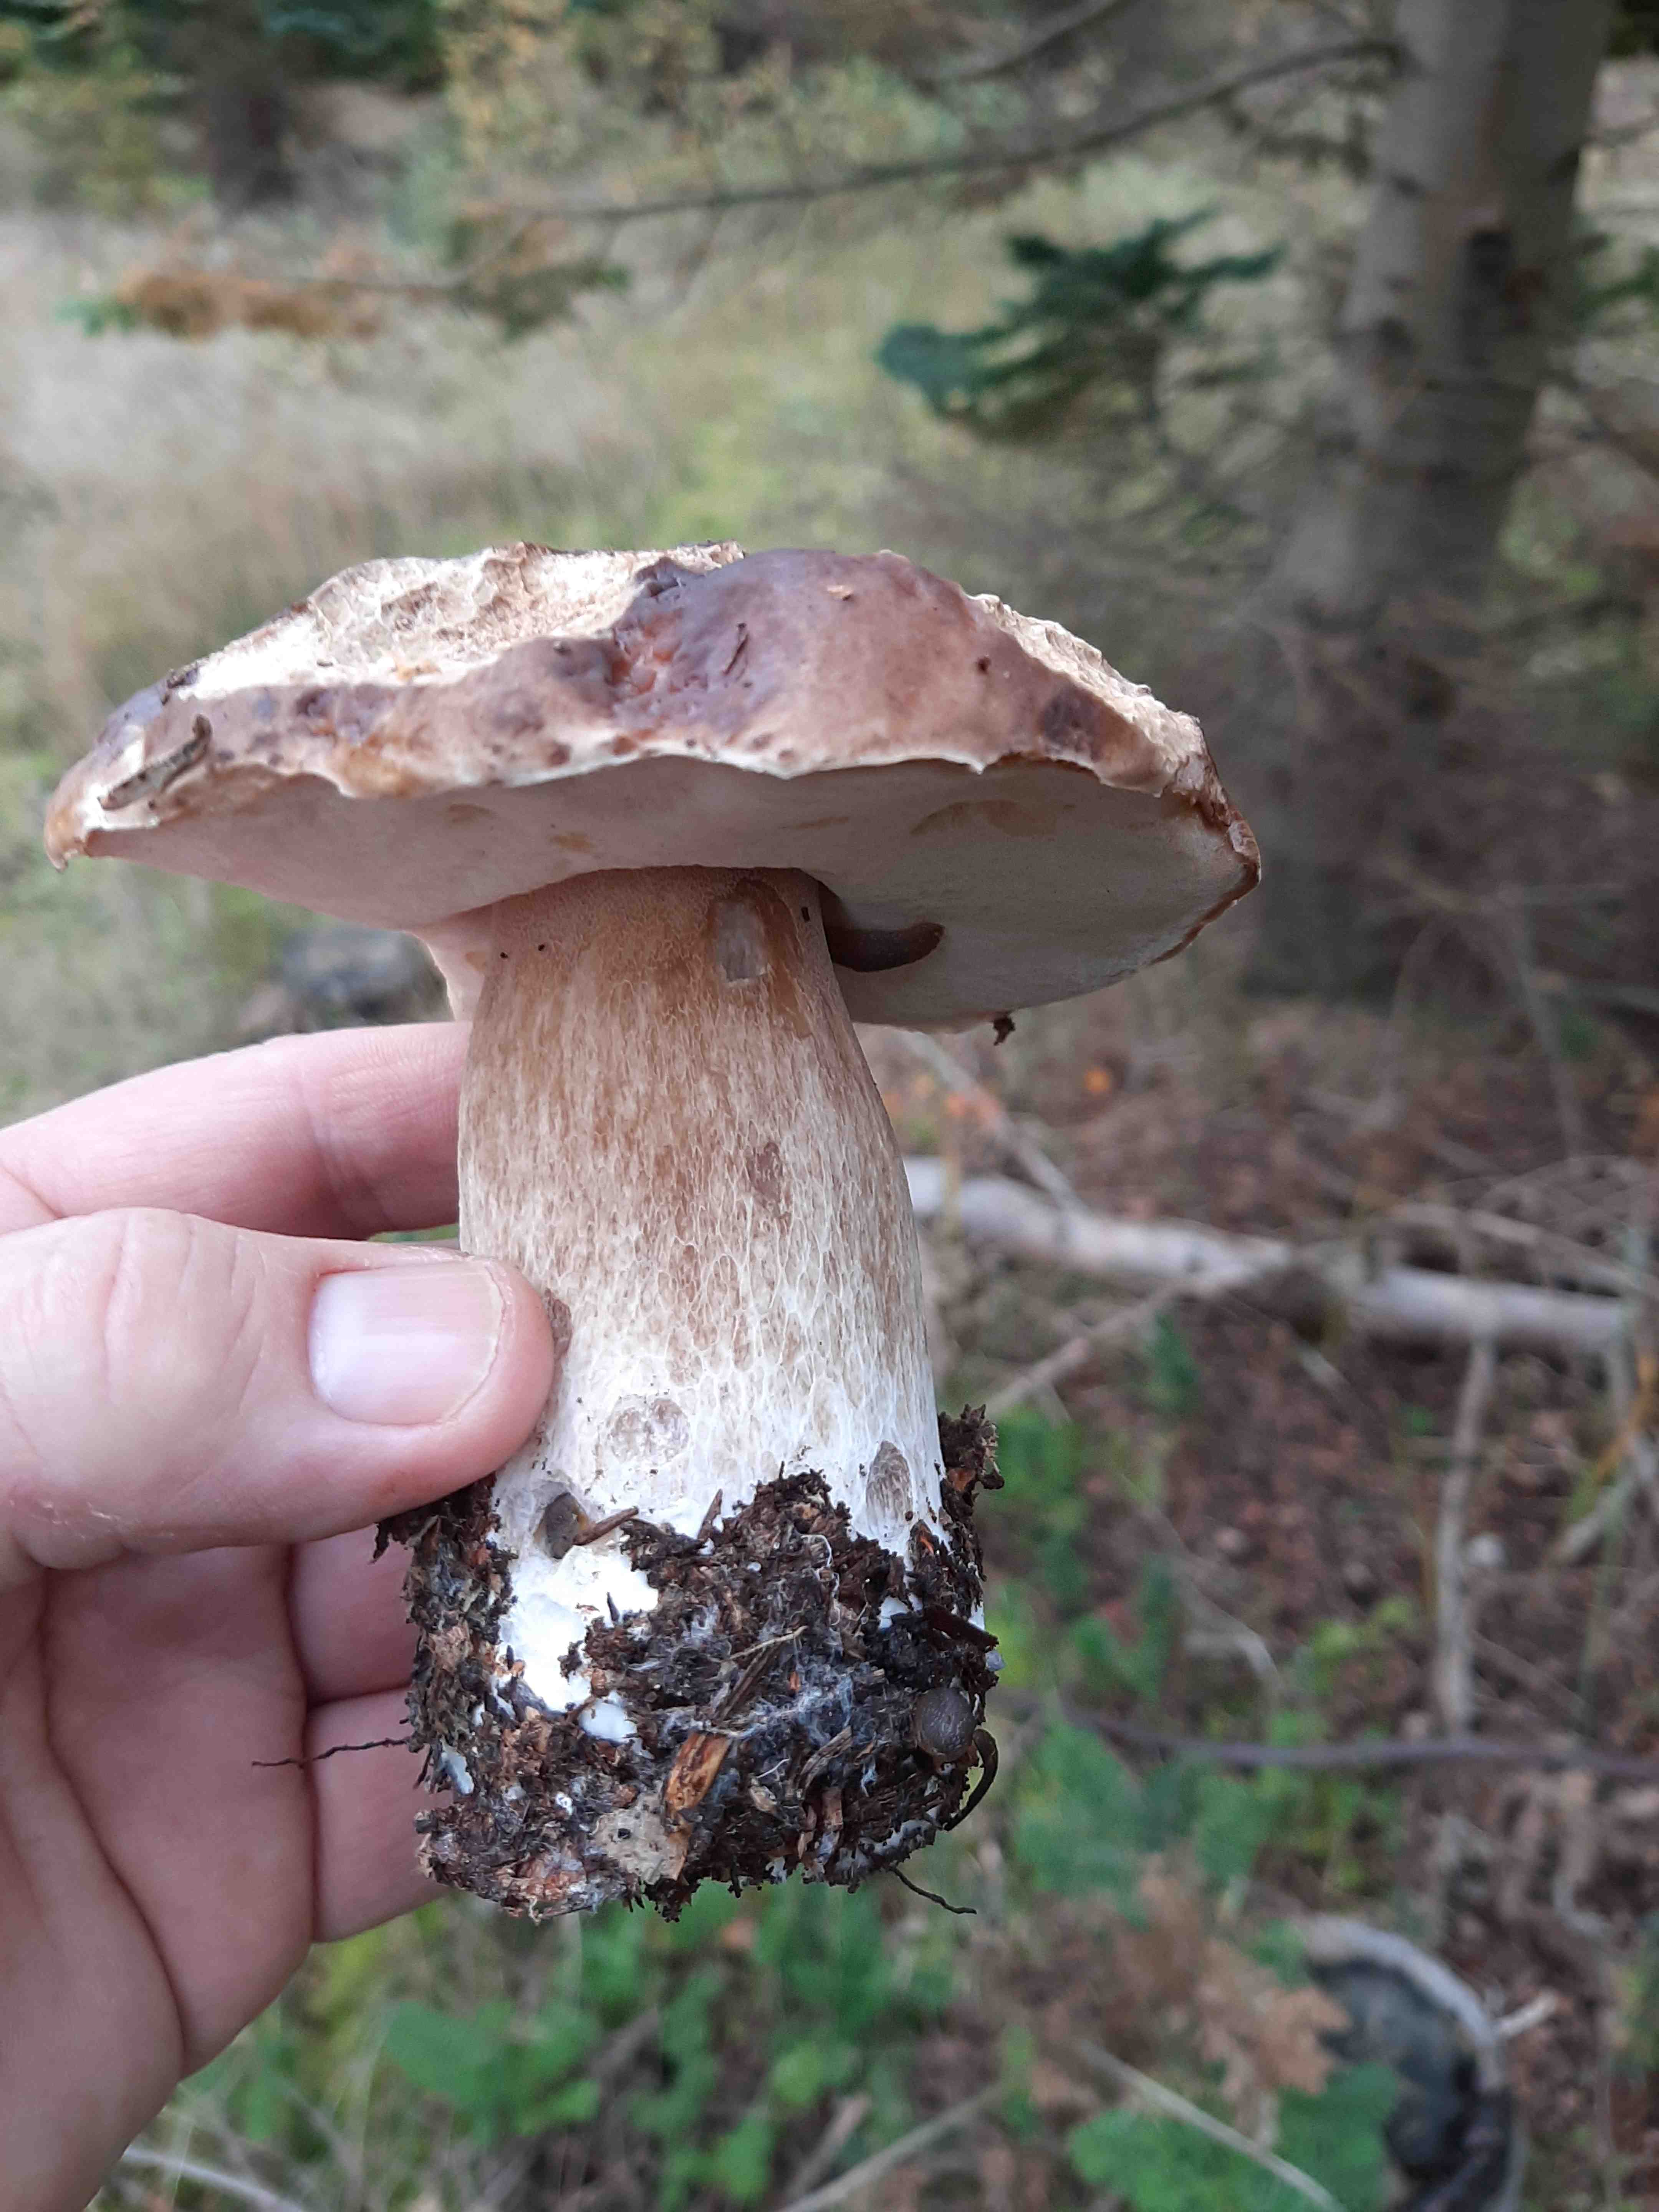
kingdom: Fungi
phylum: Basidiomycota
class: Agaricomycetes
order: Boletales
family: Boletaceae
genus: Boletus
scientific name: Boletus edulis
